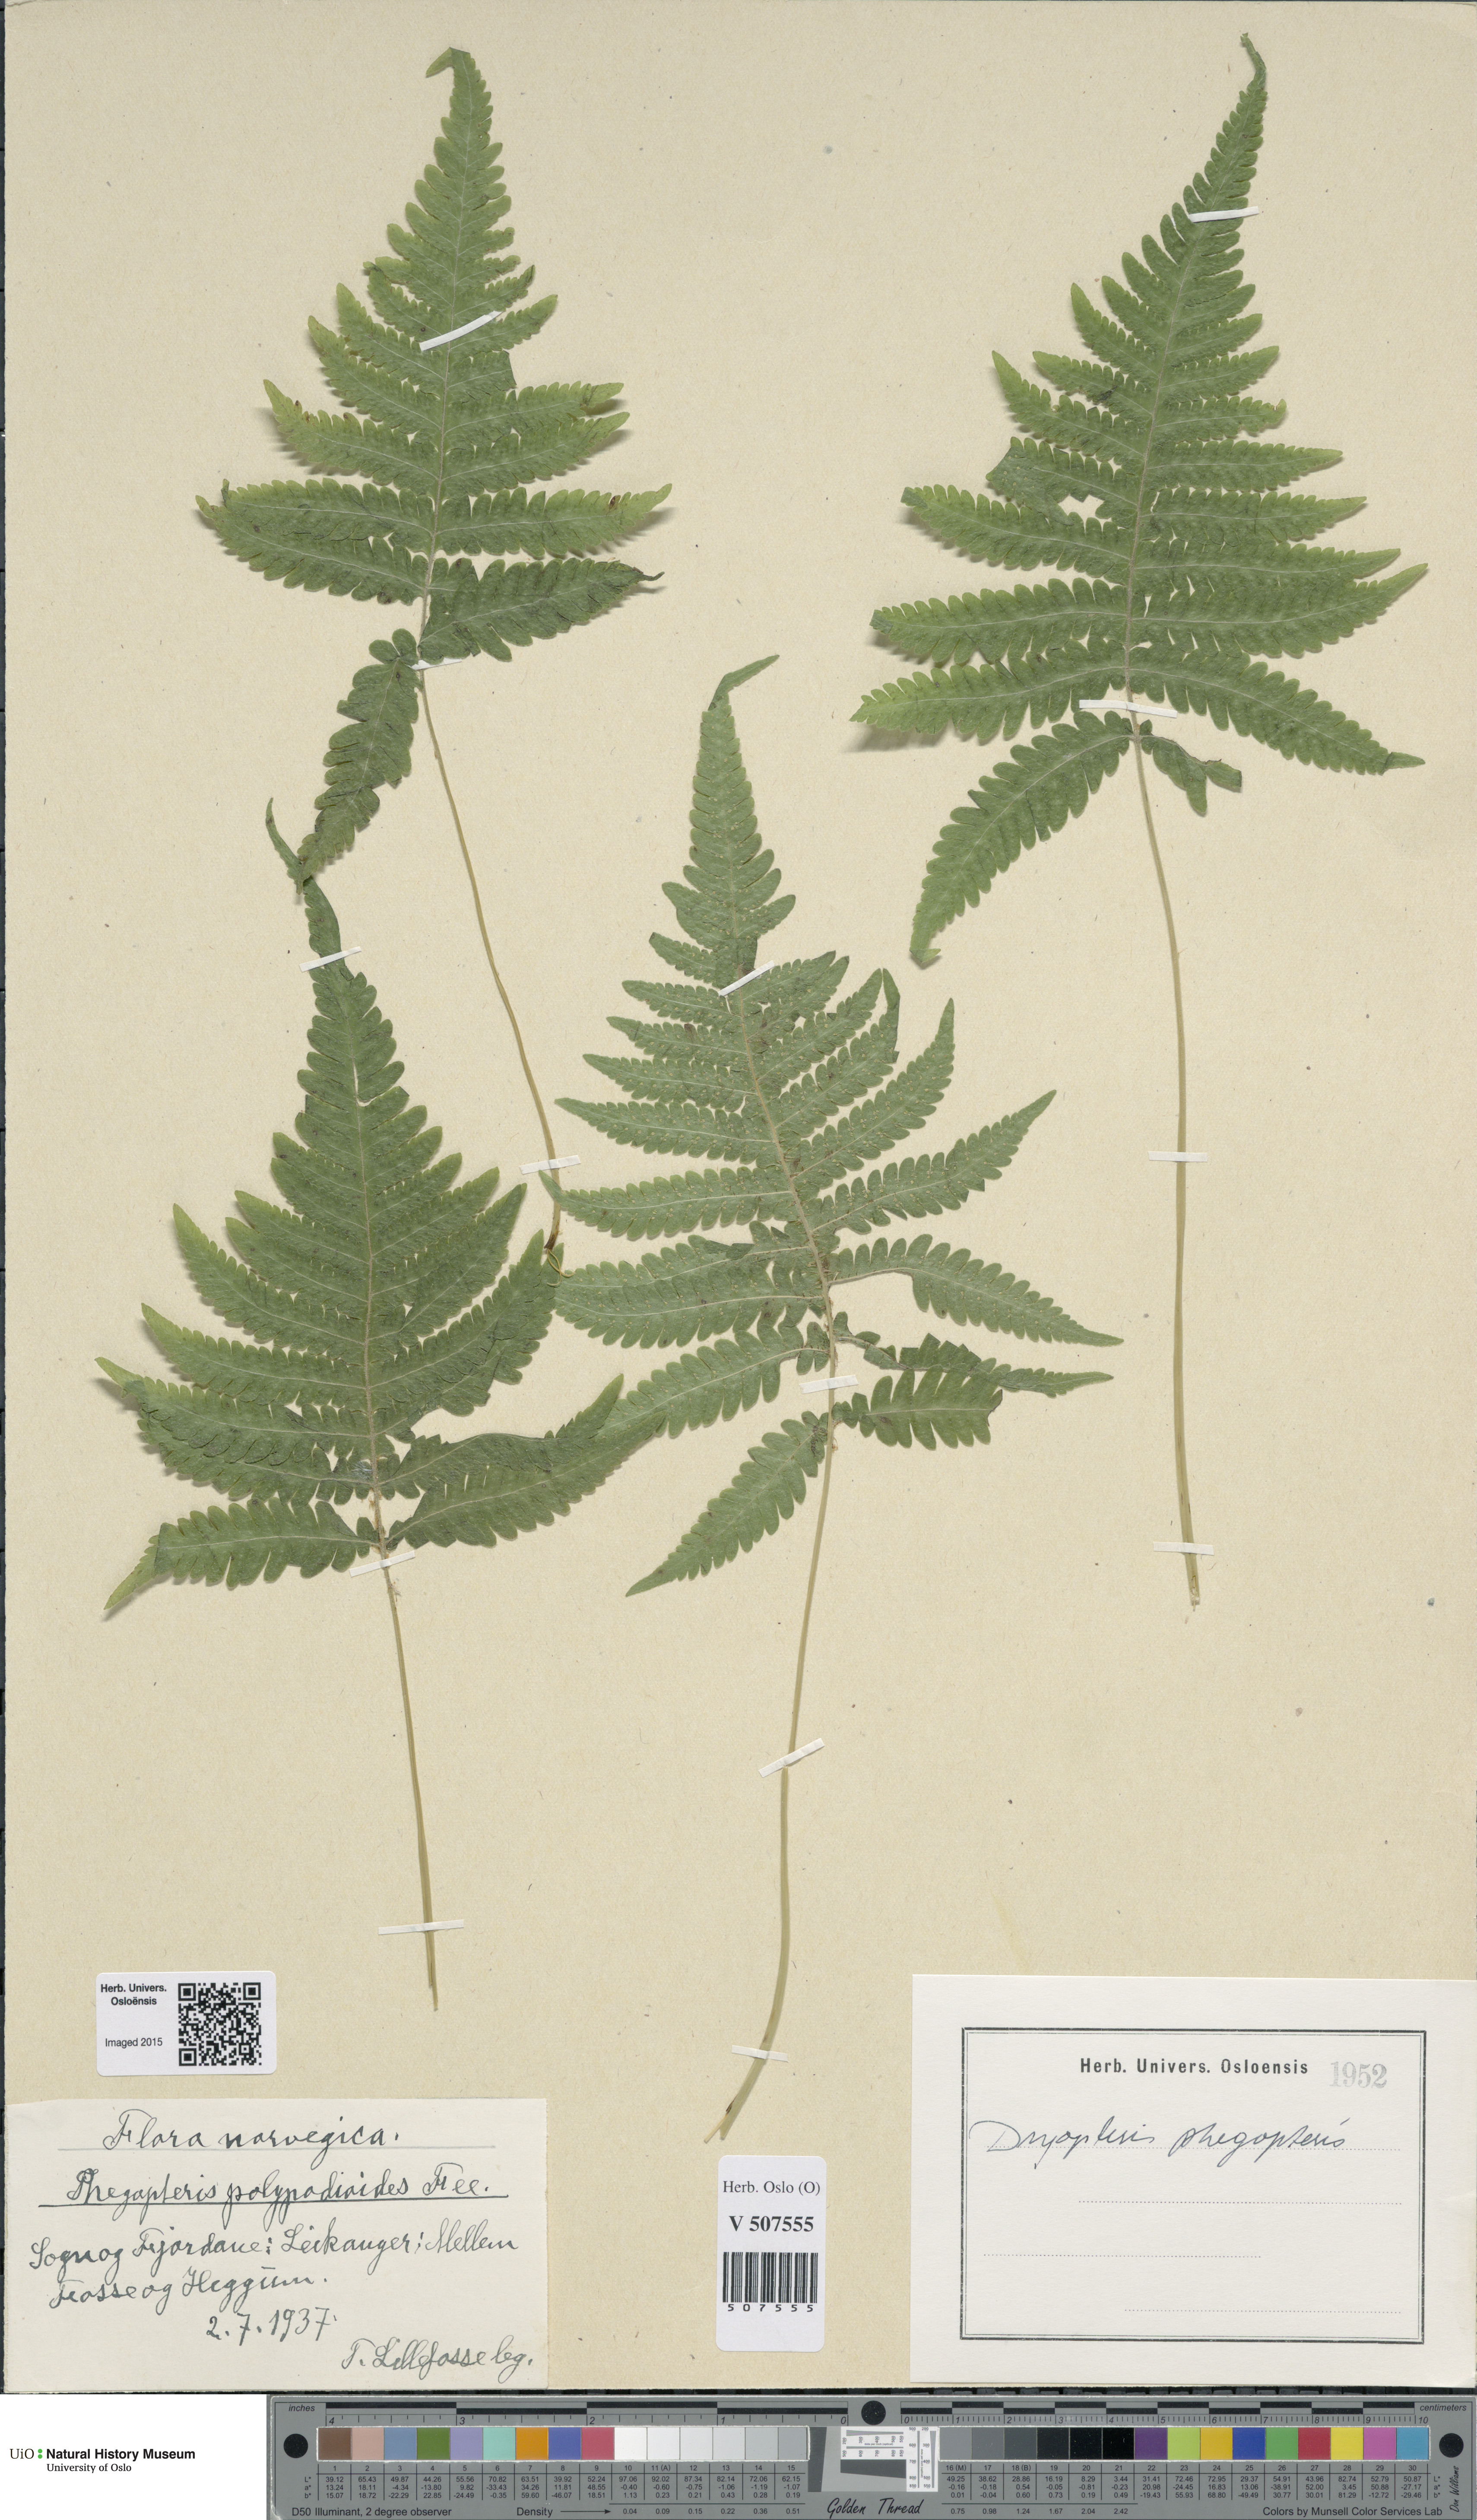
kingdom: Plantae
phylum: Tracheophyta
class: Polypodiopsida
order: Polypodiales
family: Thelypteridaceae
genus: Phegopteris
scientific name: Phegopteris connectilis
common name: Beech fern
